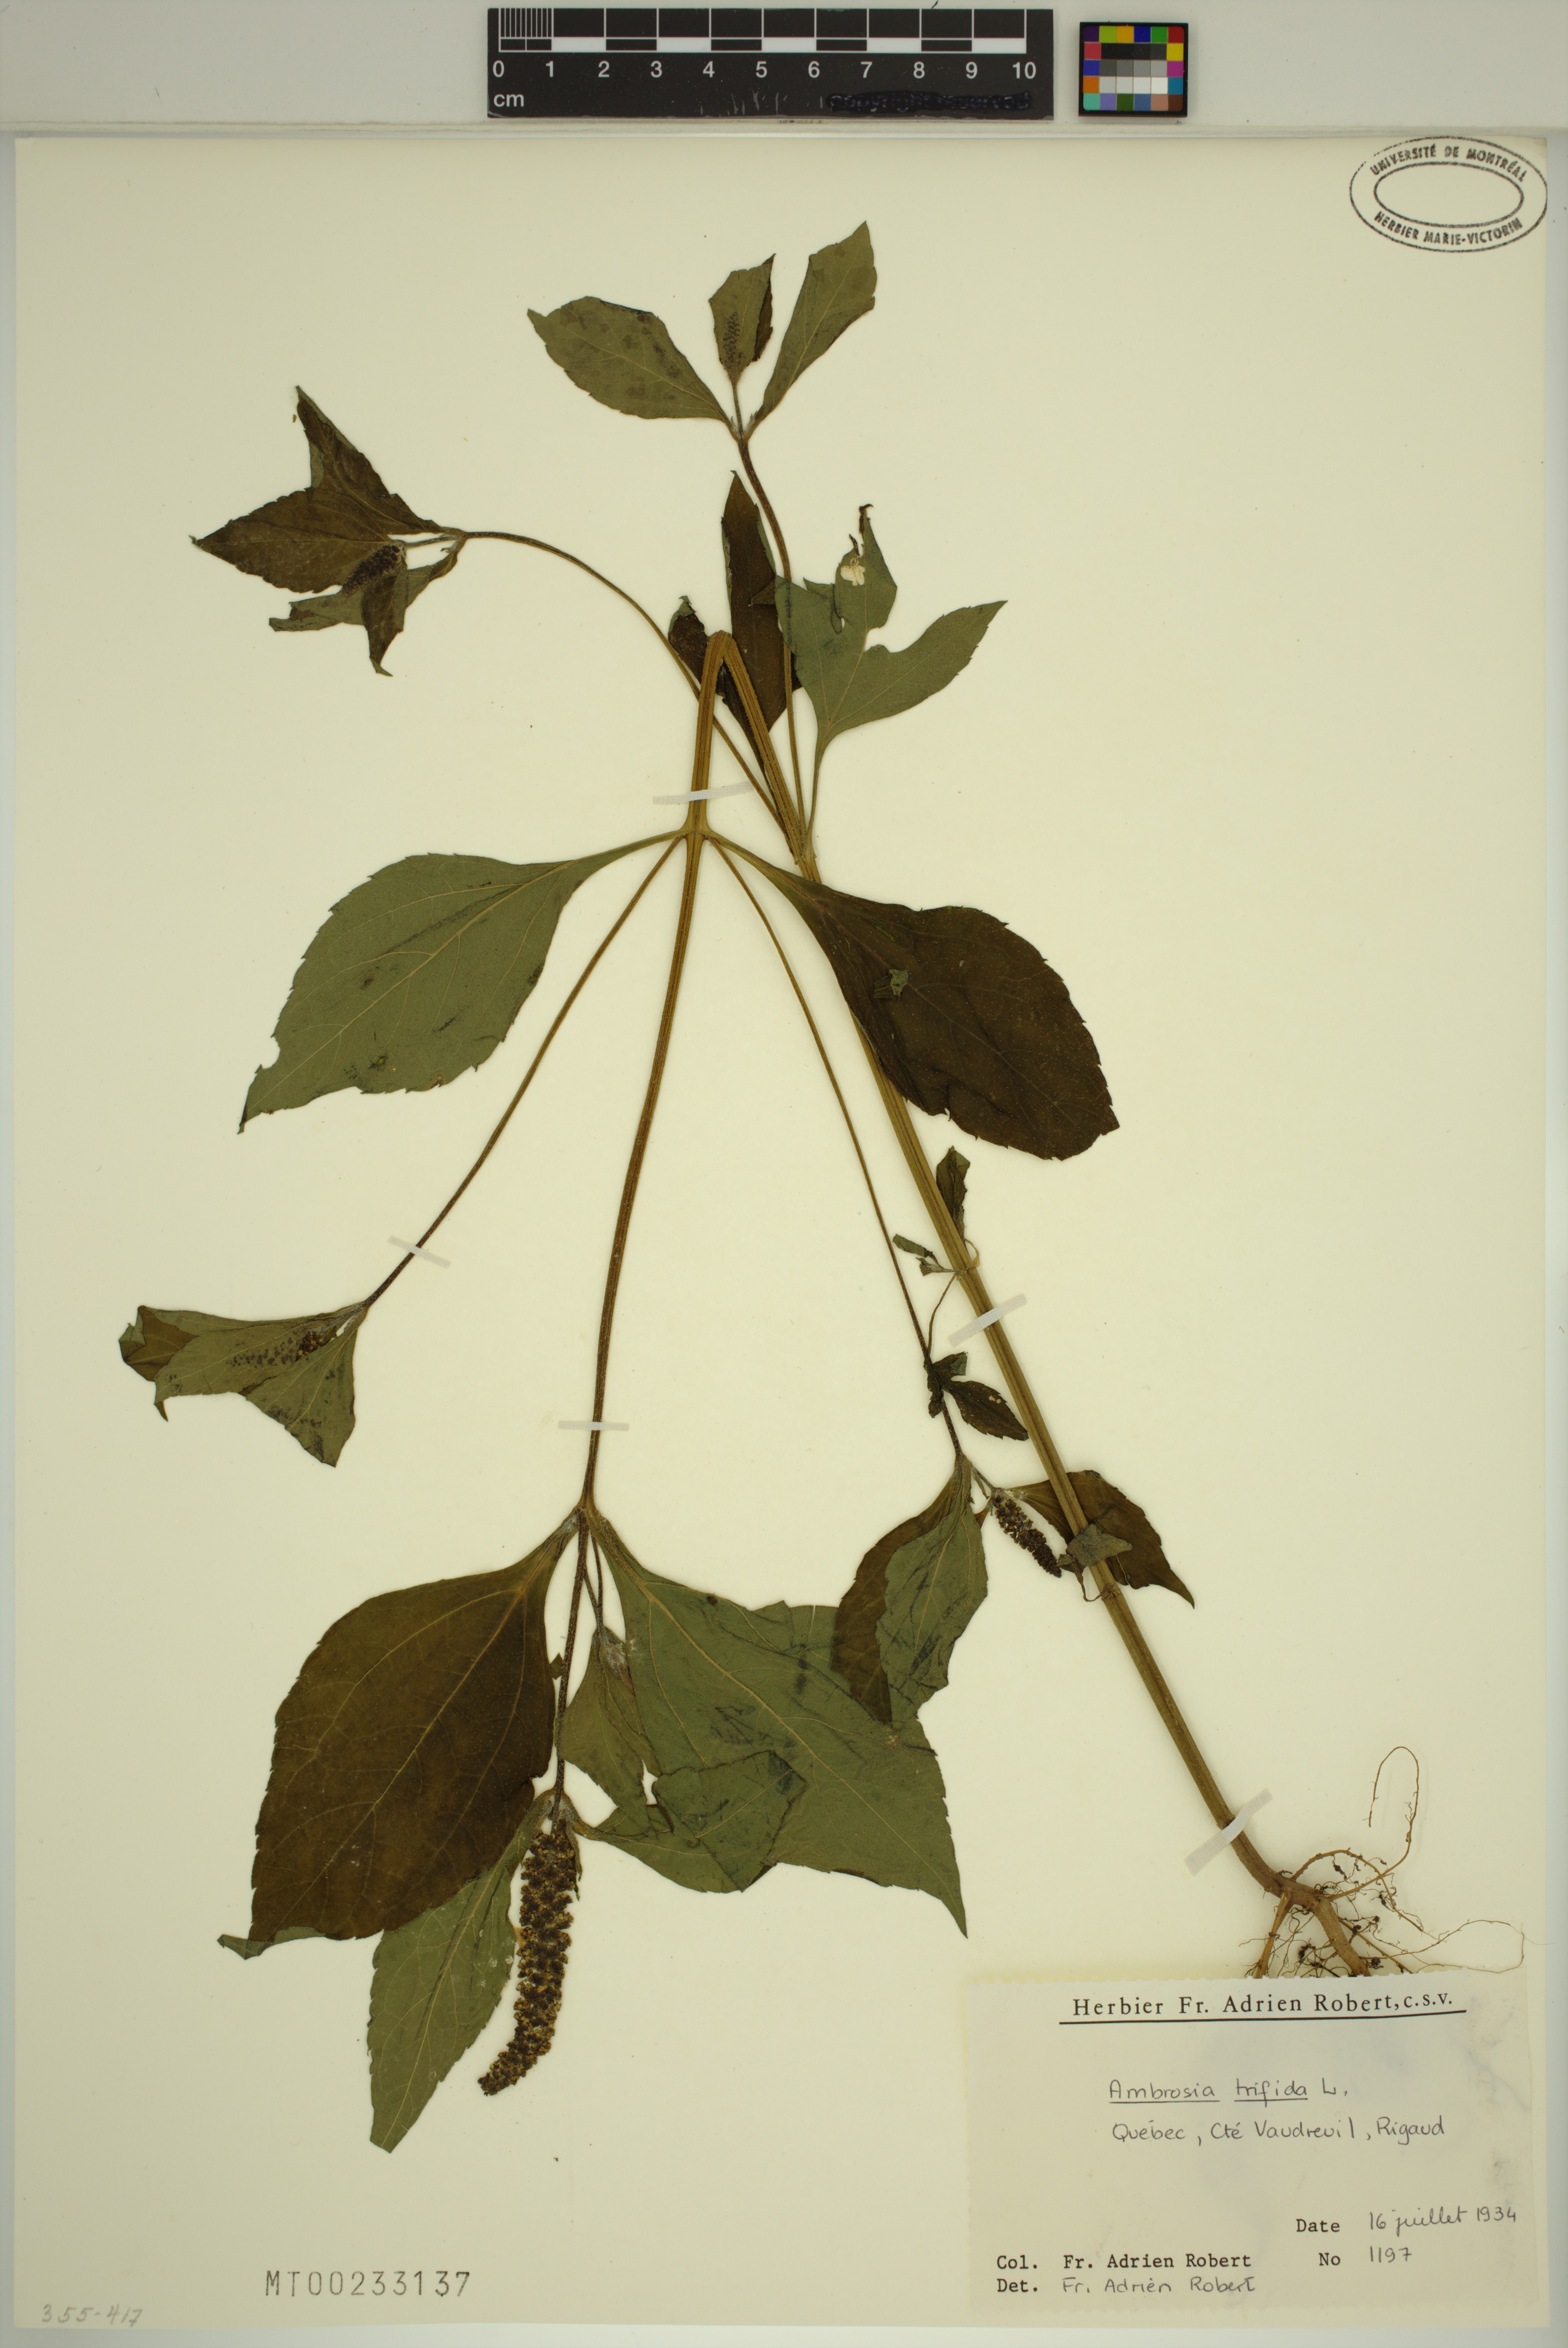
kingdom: Plantae
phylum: Tracheophyta
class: Magnoliopsida
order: Asterales
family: Asteraceae
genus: Ambrosia
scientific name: Ambrosia trifida
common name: Giant ragweed
